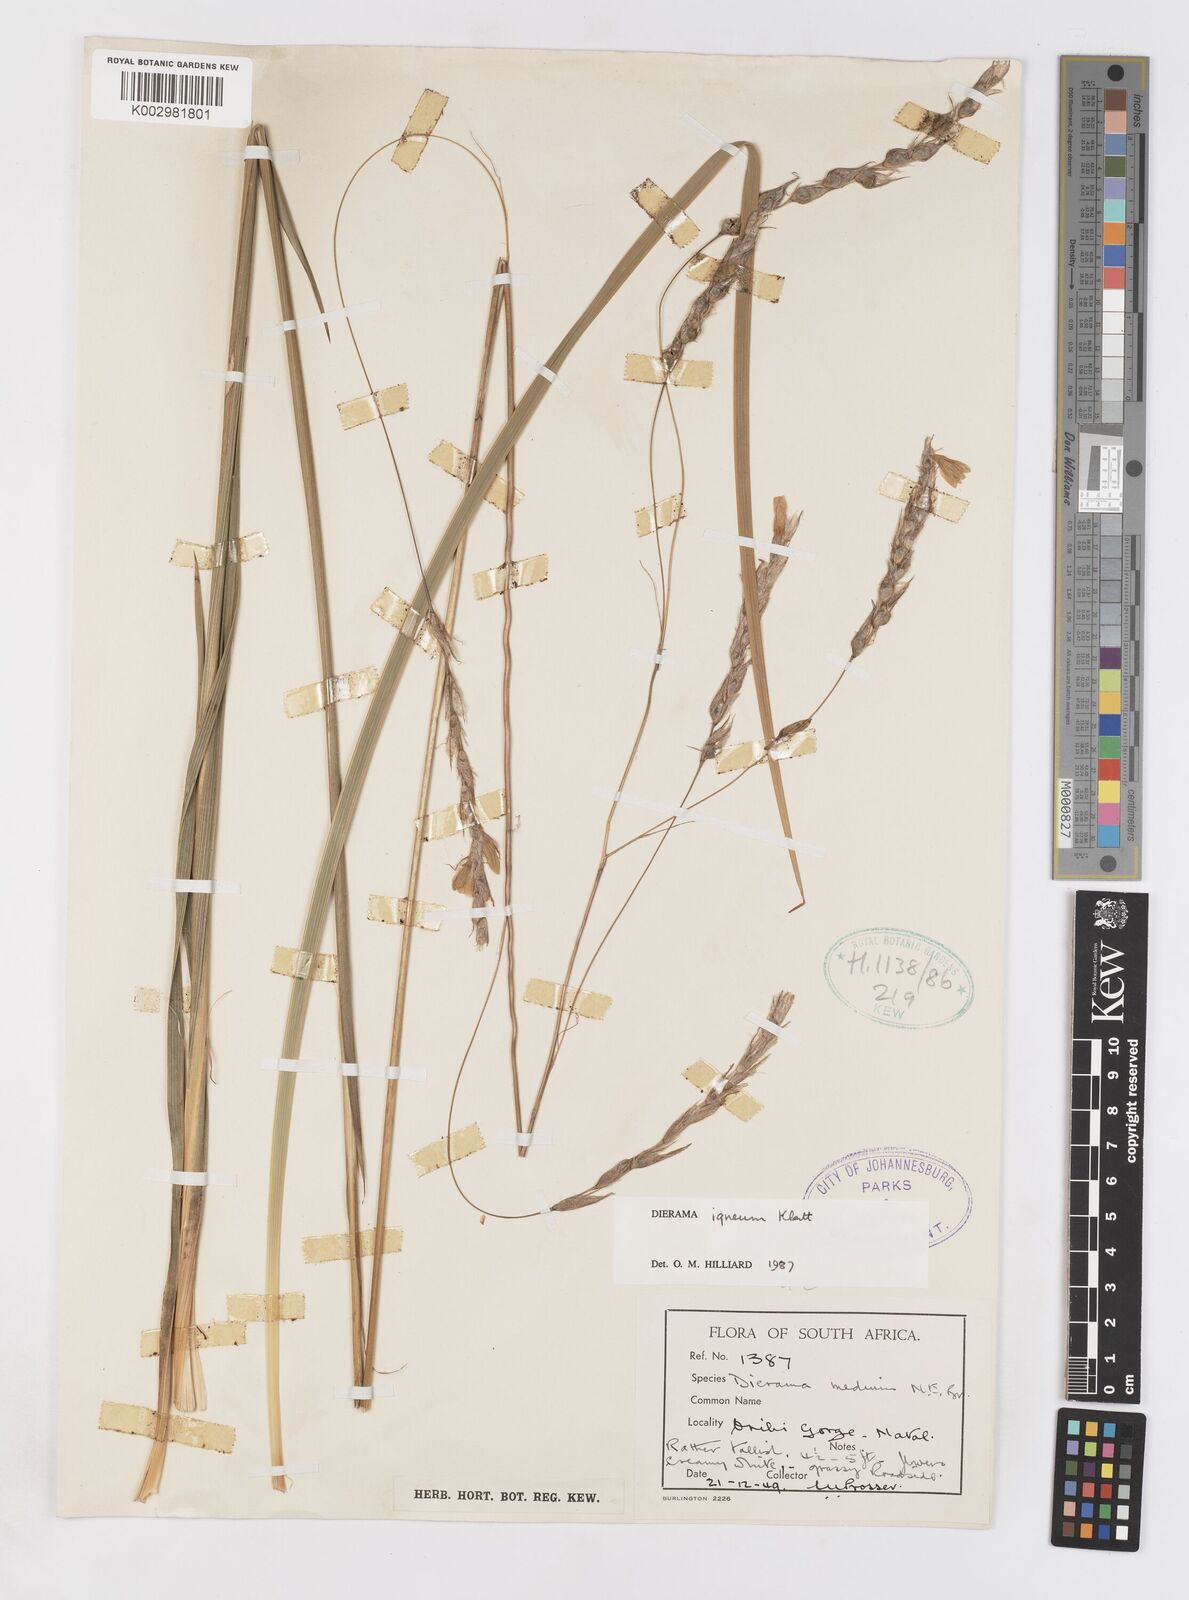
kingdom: Plantae
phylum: Tracheophyta
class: Liliopsida
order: Asparagales
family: Iridaceae
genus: Dierama
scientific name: Dierama igneum
